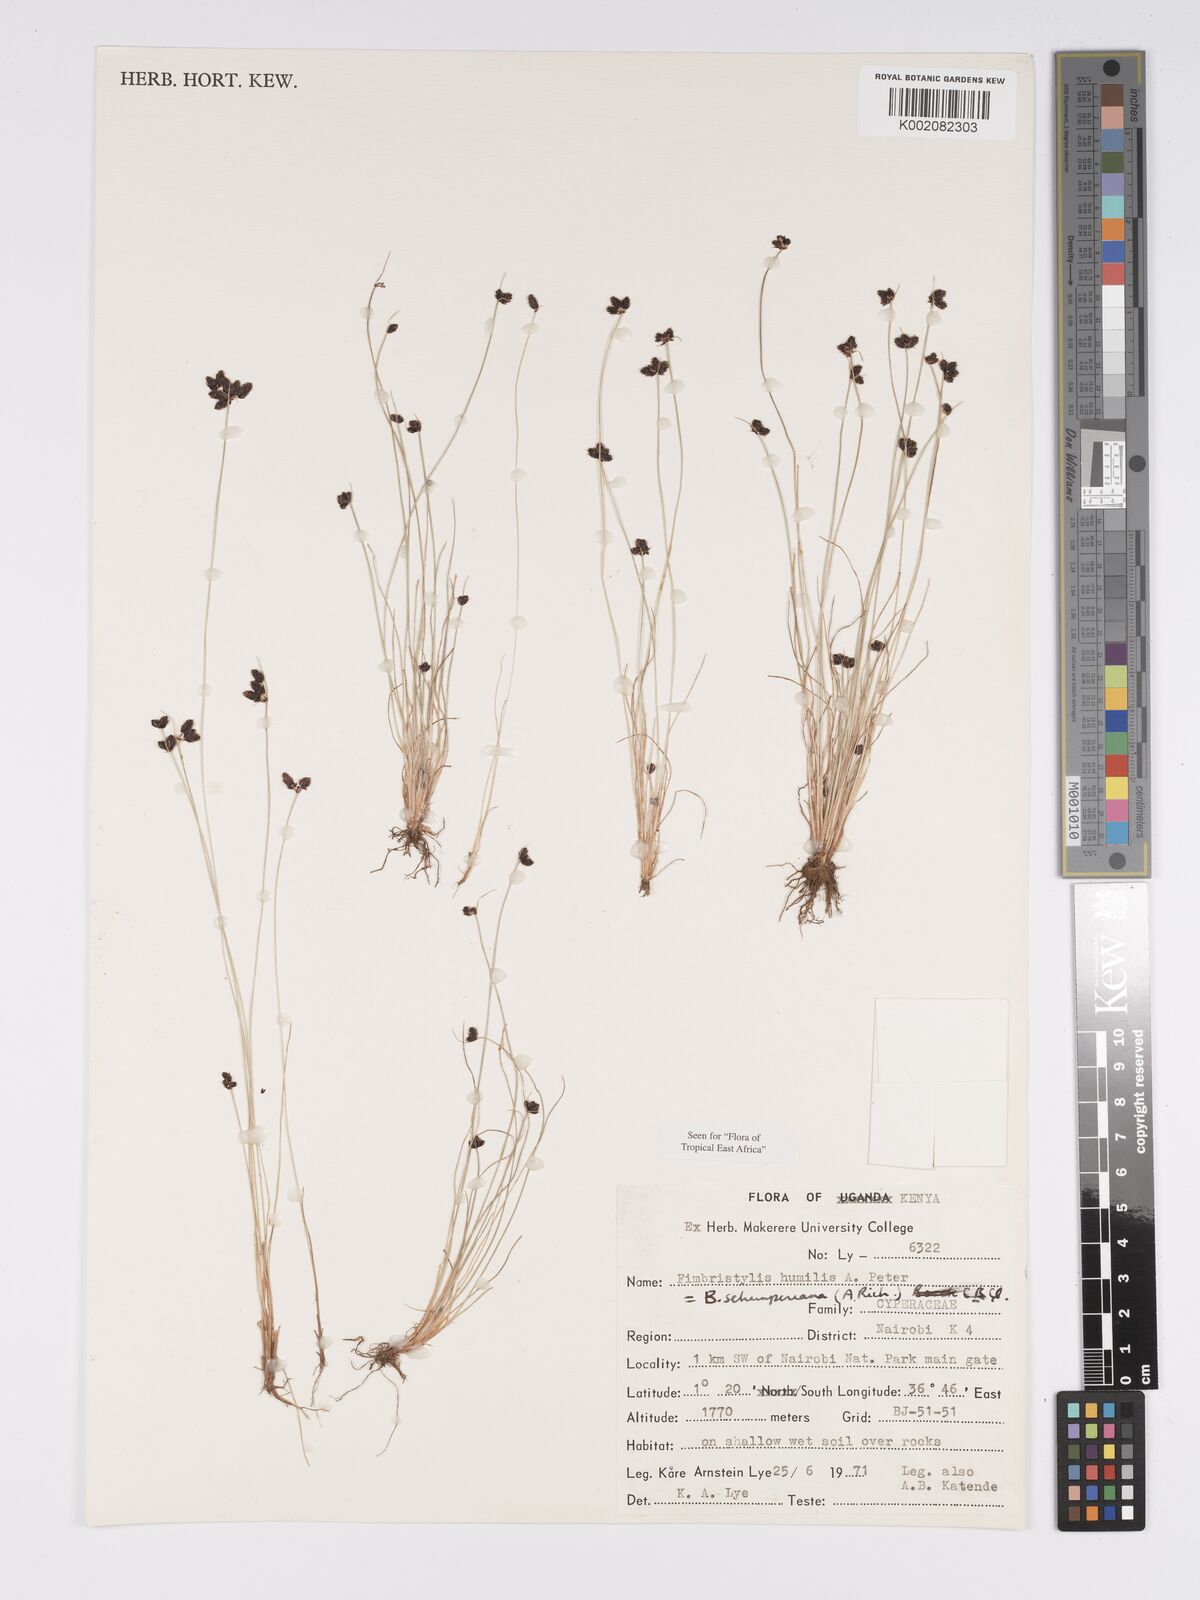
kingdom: Plantae
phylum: Tracheophyta
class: Liliopsida
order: Poales
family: Cyperaceae
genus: Bulbostylis
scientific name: Bulbostylis schimperiana
